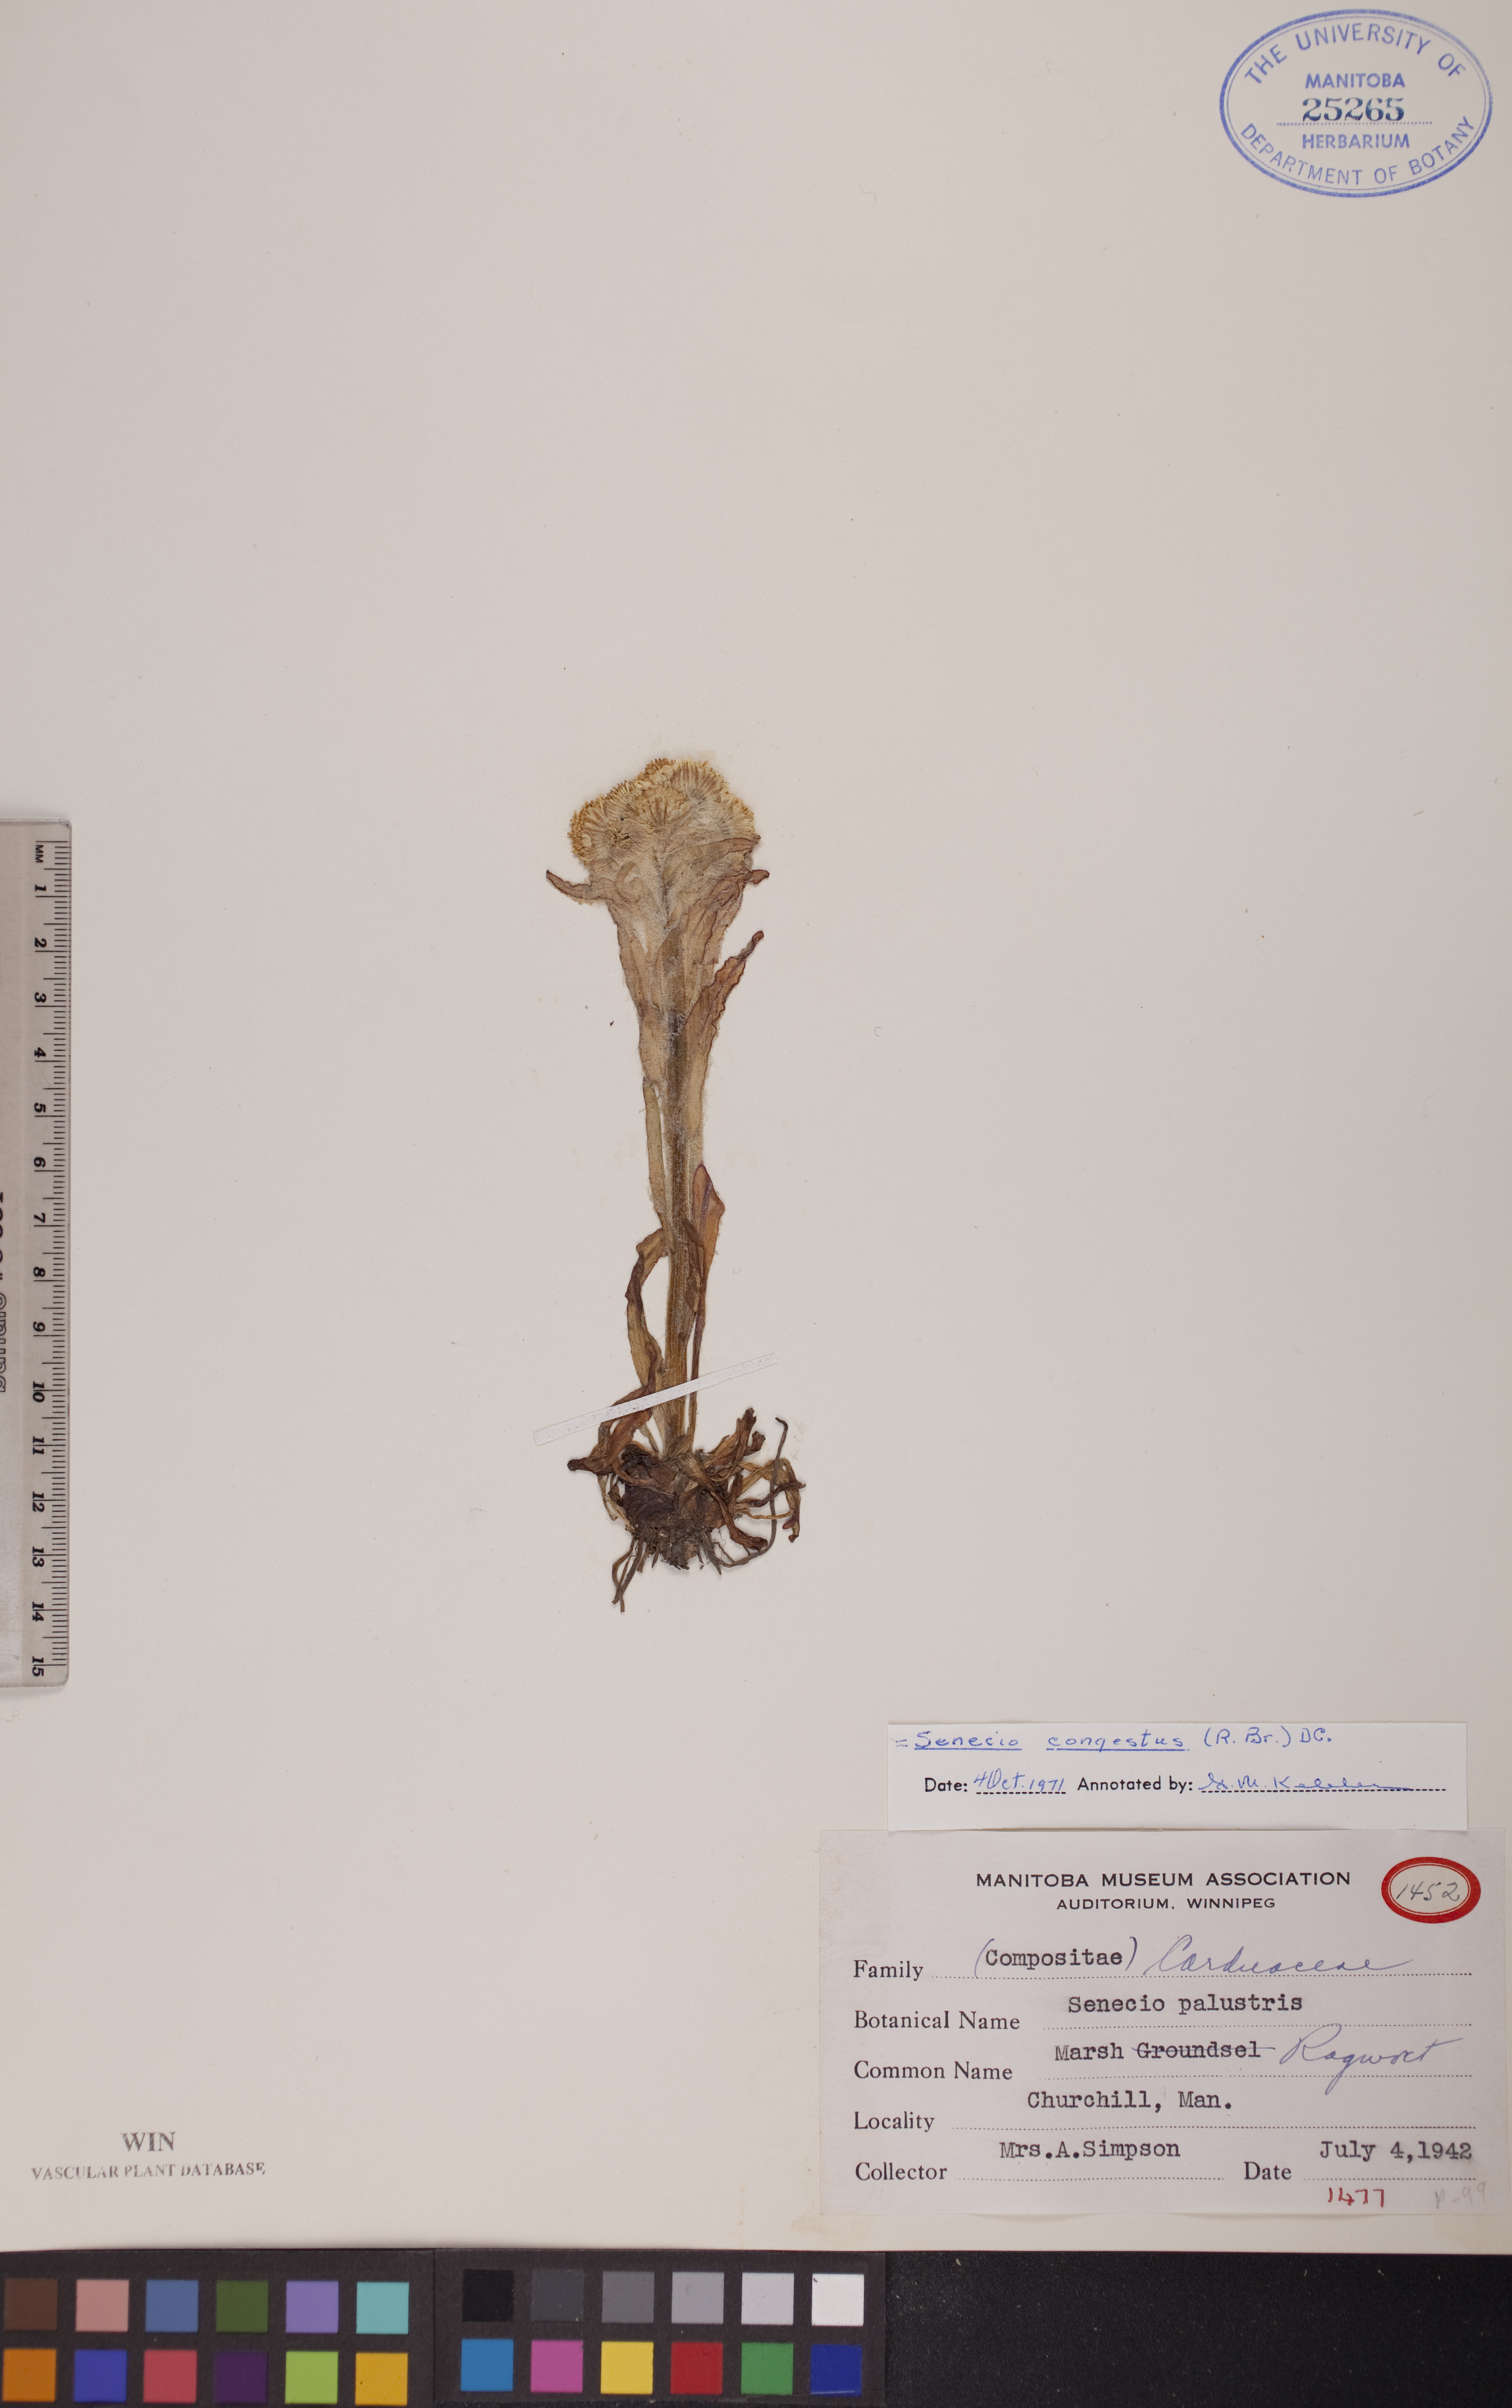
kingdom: Plantae
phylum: Tracheophyta
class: Magnoliopsida
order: Asterales
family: Asteraceae
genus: Tephroseris
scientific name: Tephroseris palustris
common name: Marsh fleawort
